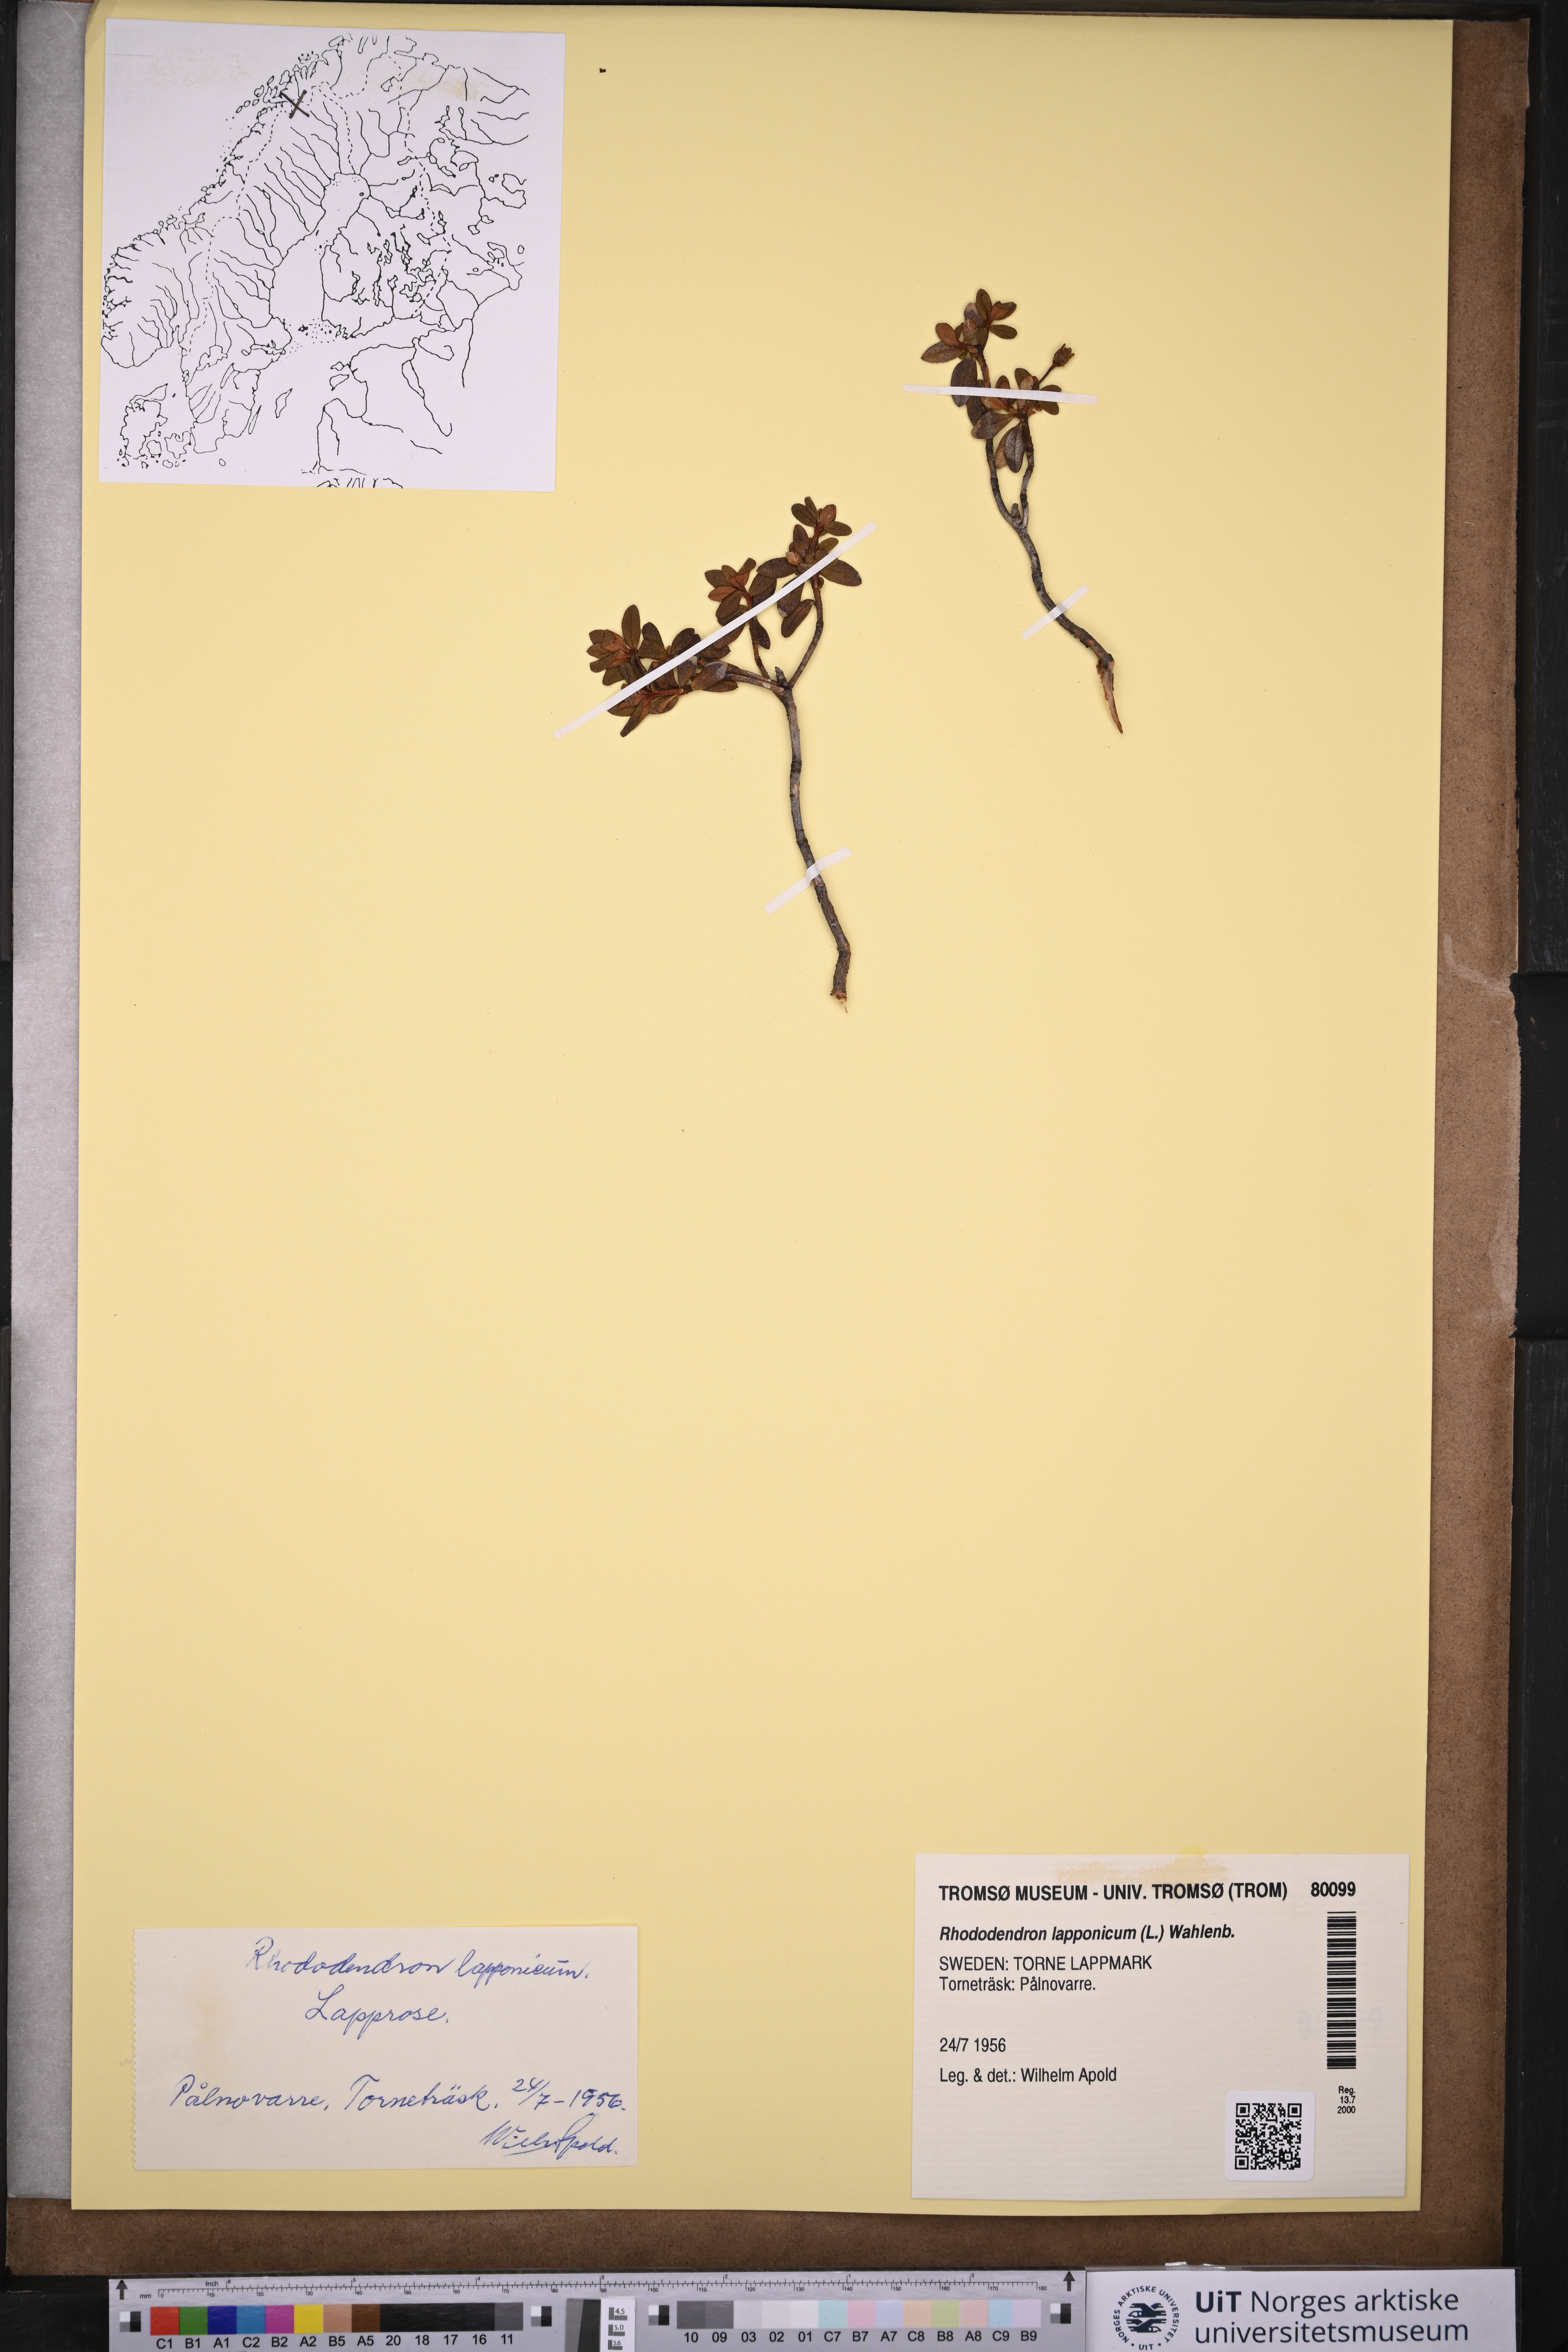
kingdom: Plantae
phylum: Tracheophyta
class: Magnoliopsida
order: Ericales
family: Ericaceae
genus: Rhododendron
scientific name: Rhododendron lapponicum
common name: Lapland rhododendron
